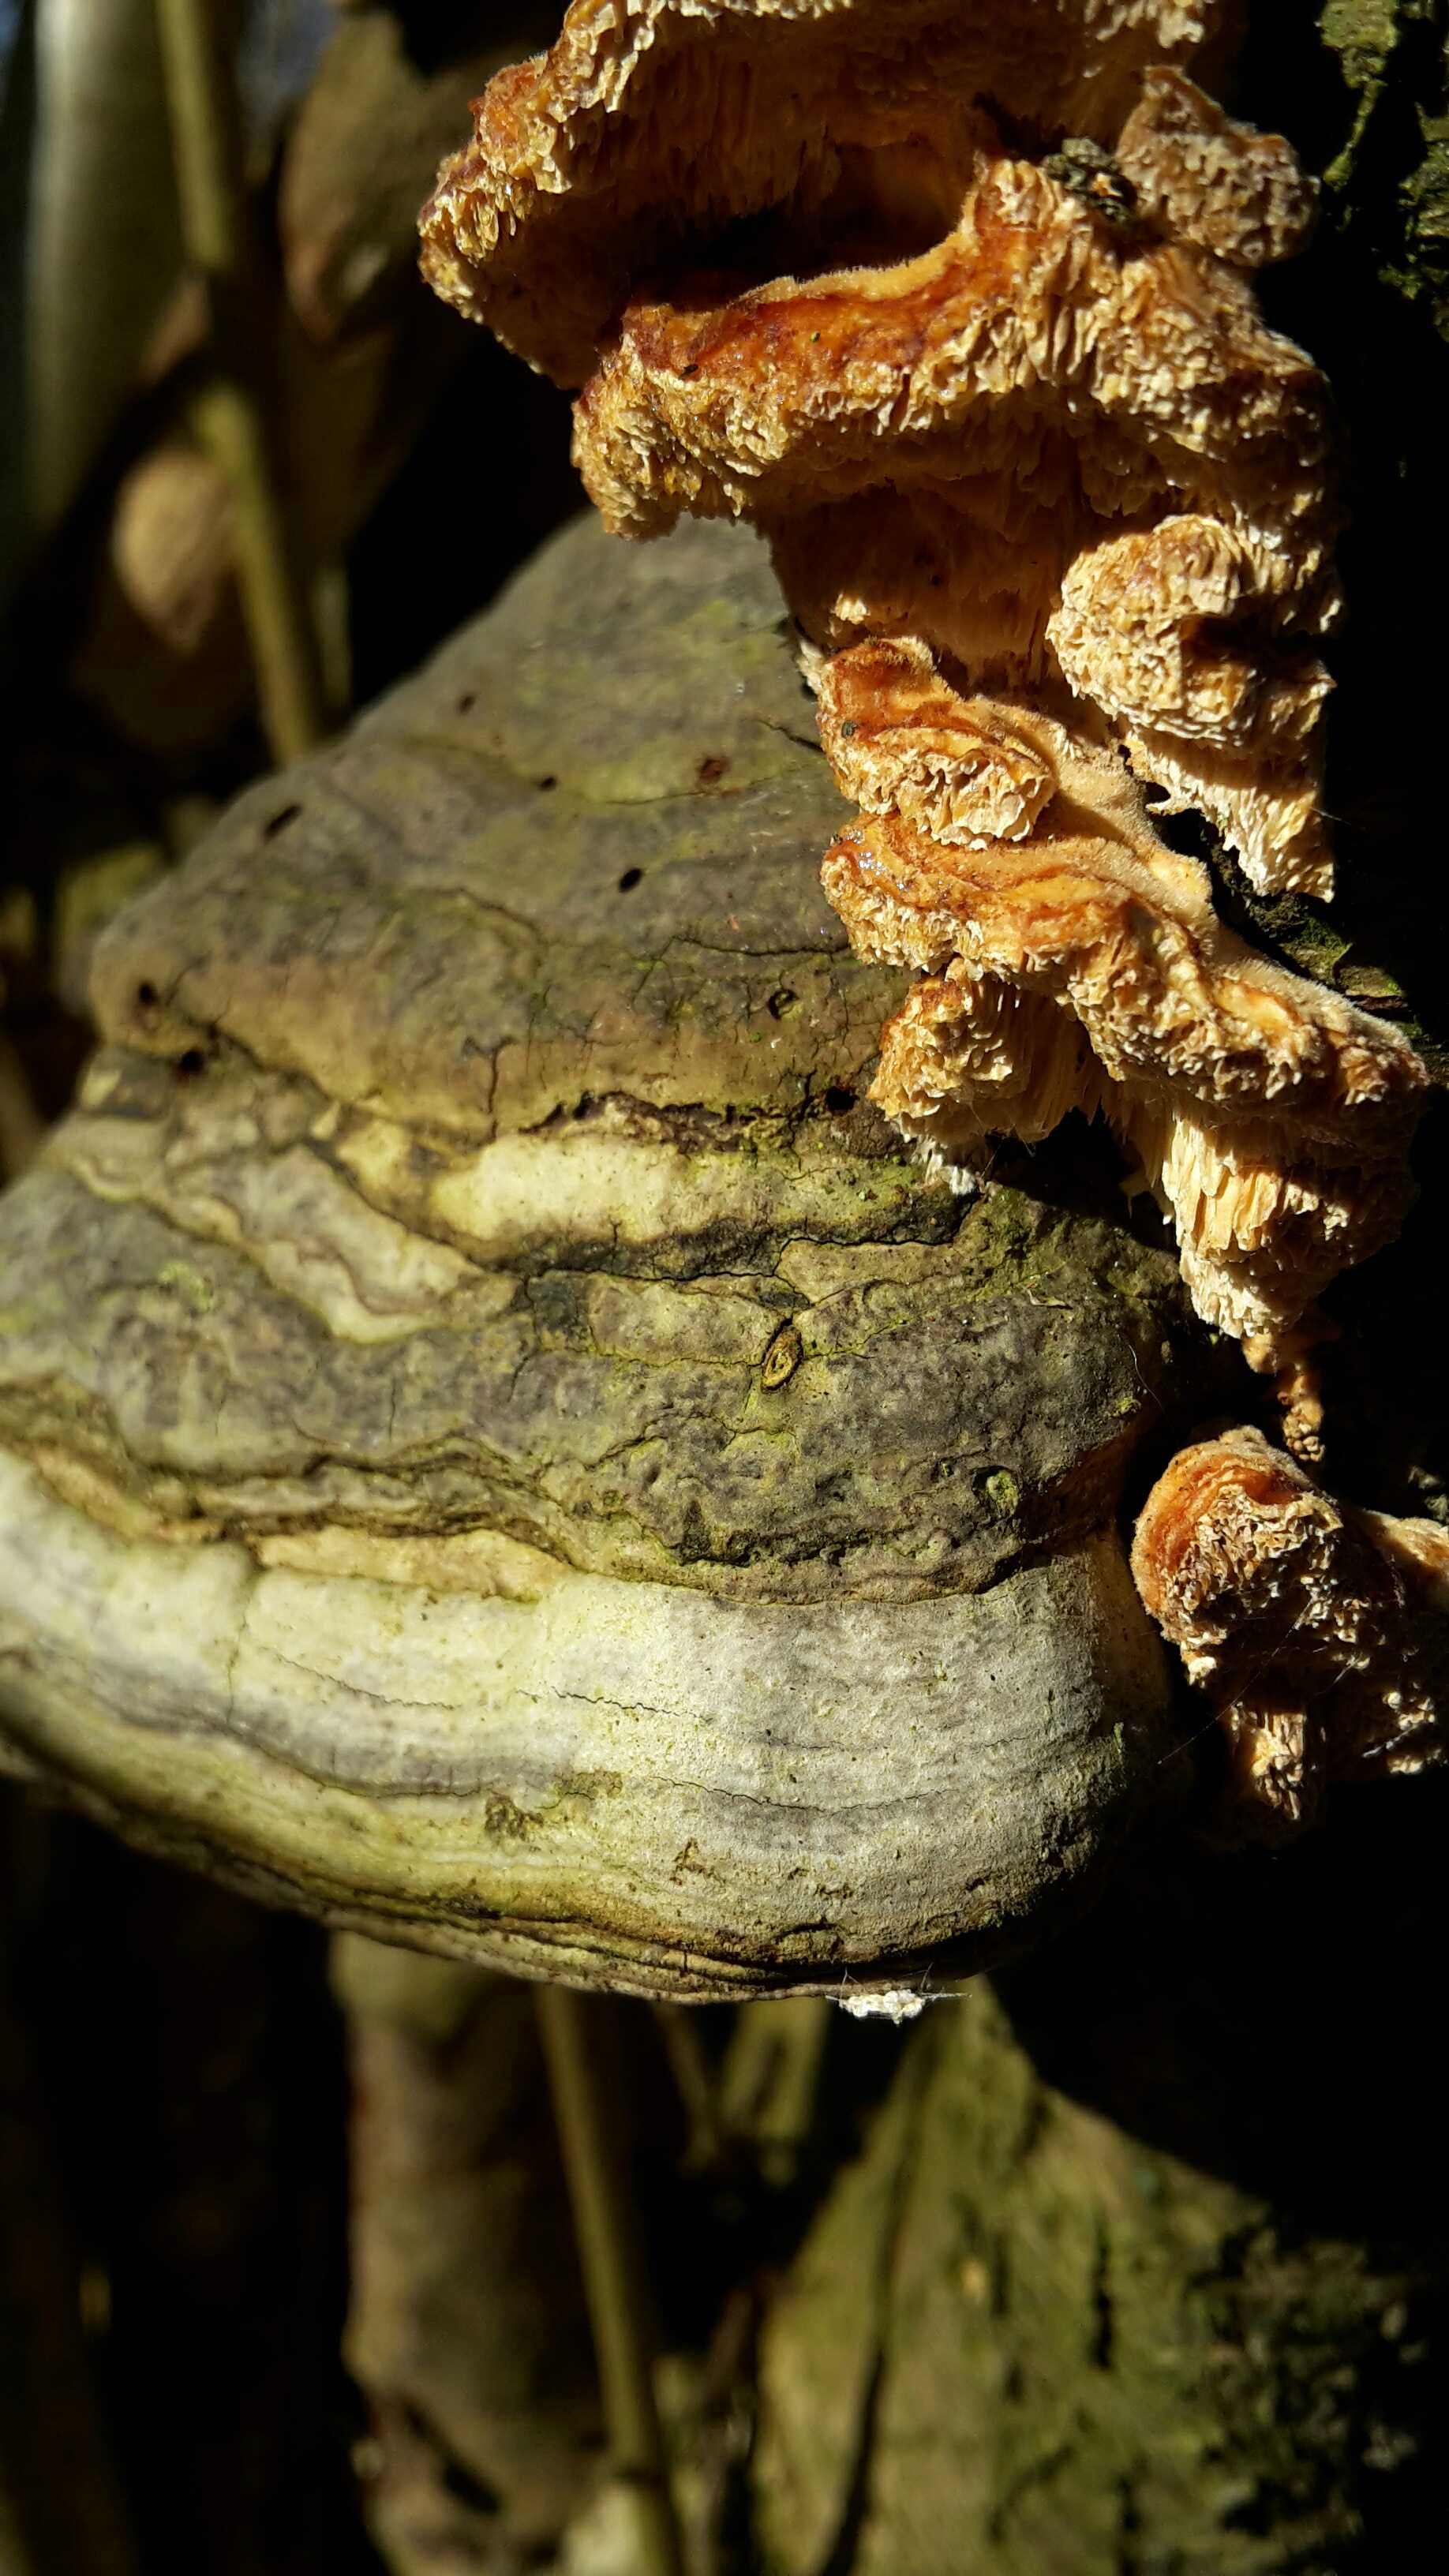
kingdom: Fungi
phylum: Basidiomycota
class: Agaricomycetes
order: Polyporales
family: Polyporaceae
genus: Fomes
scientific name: Fomes fomentarius
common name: tøndersvamp
